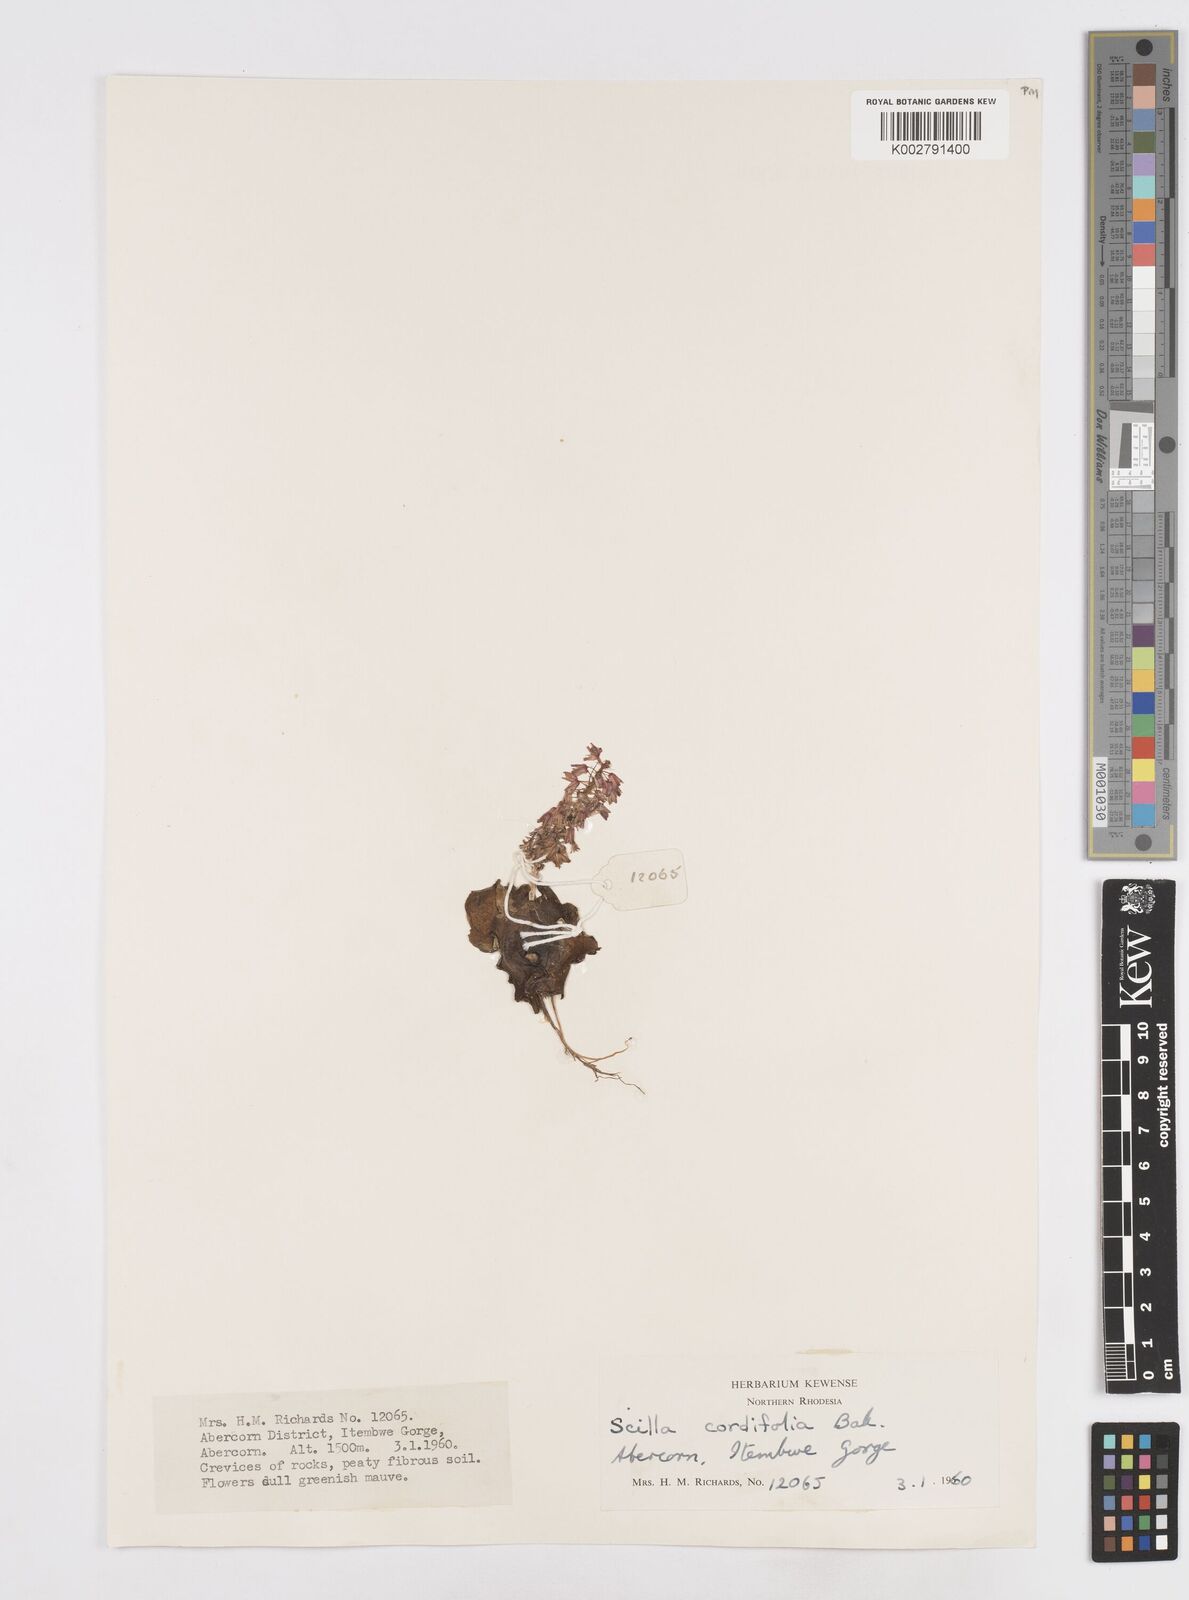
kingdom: Plantae
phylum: Tracheophyta
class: Liliopsida
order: Asparagales
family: Asparagaceae
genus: Ledebouria
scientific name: Ledebouria cordifolia
